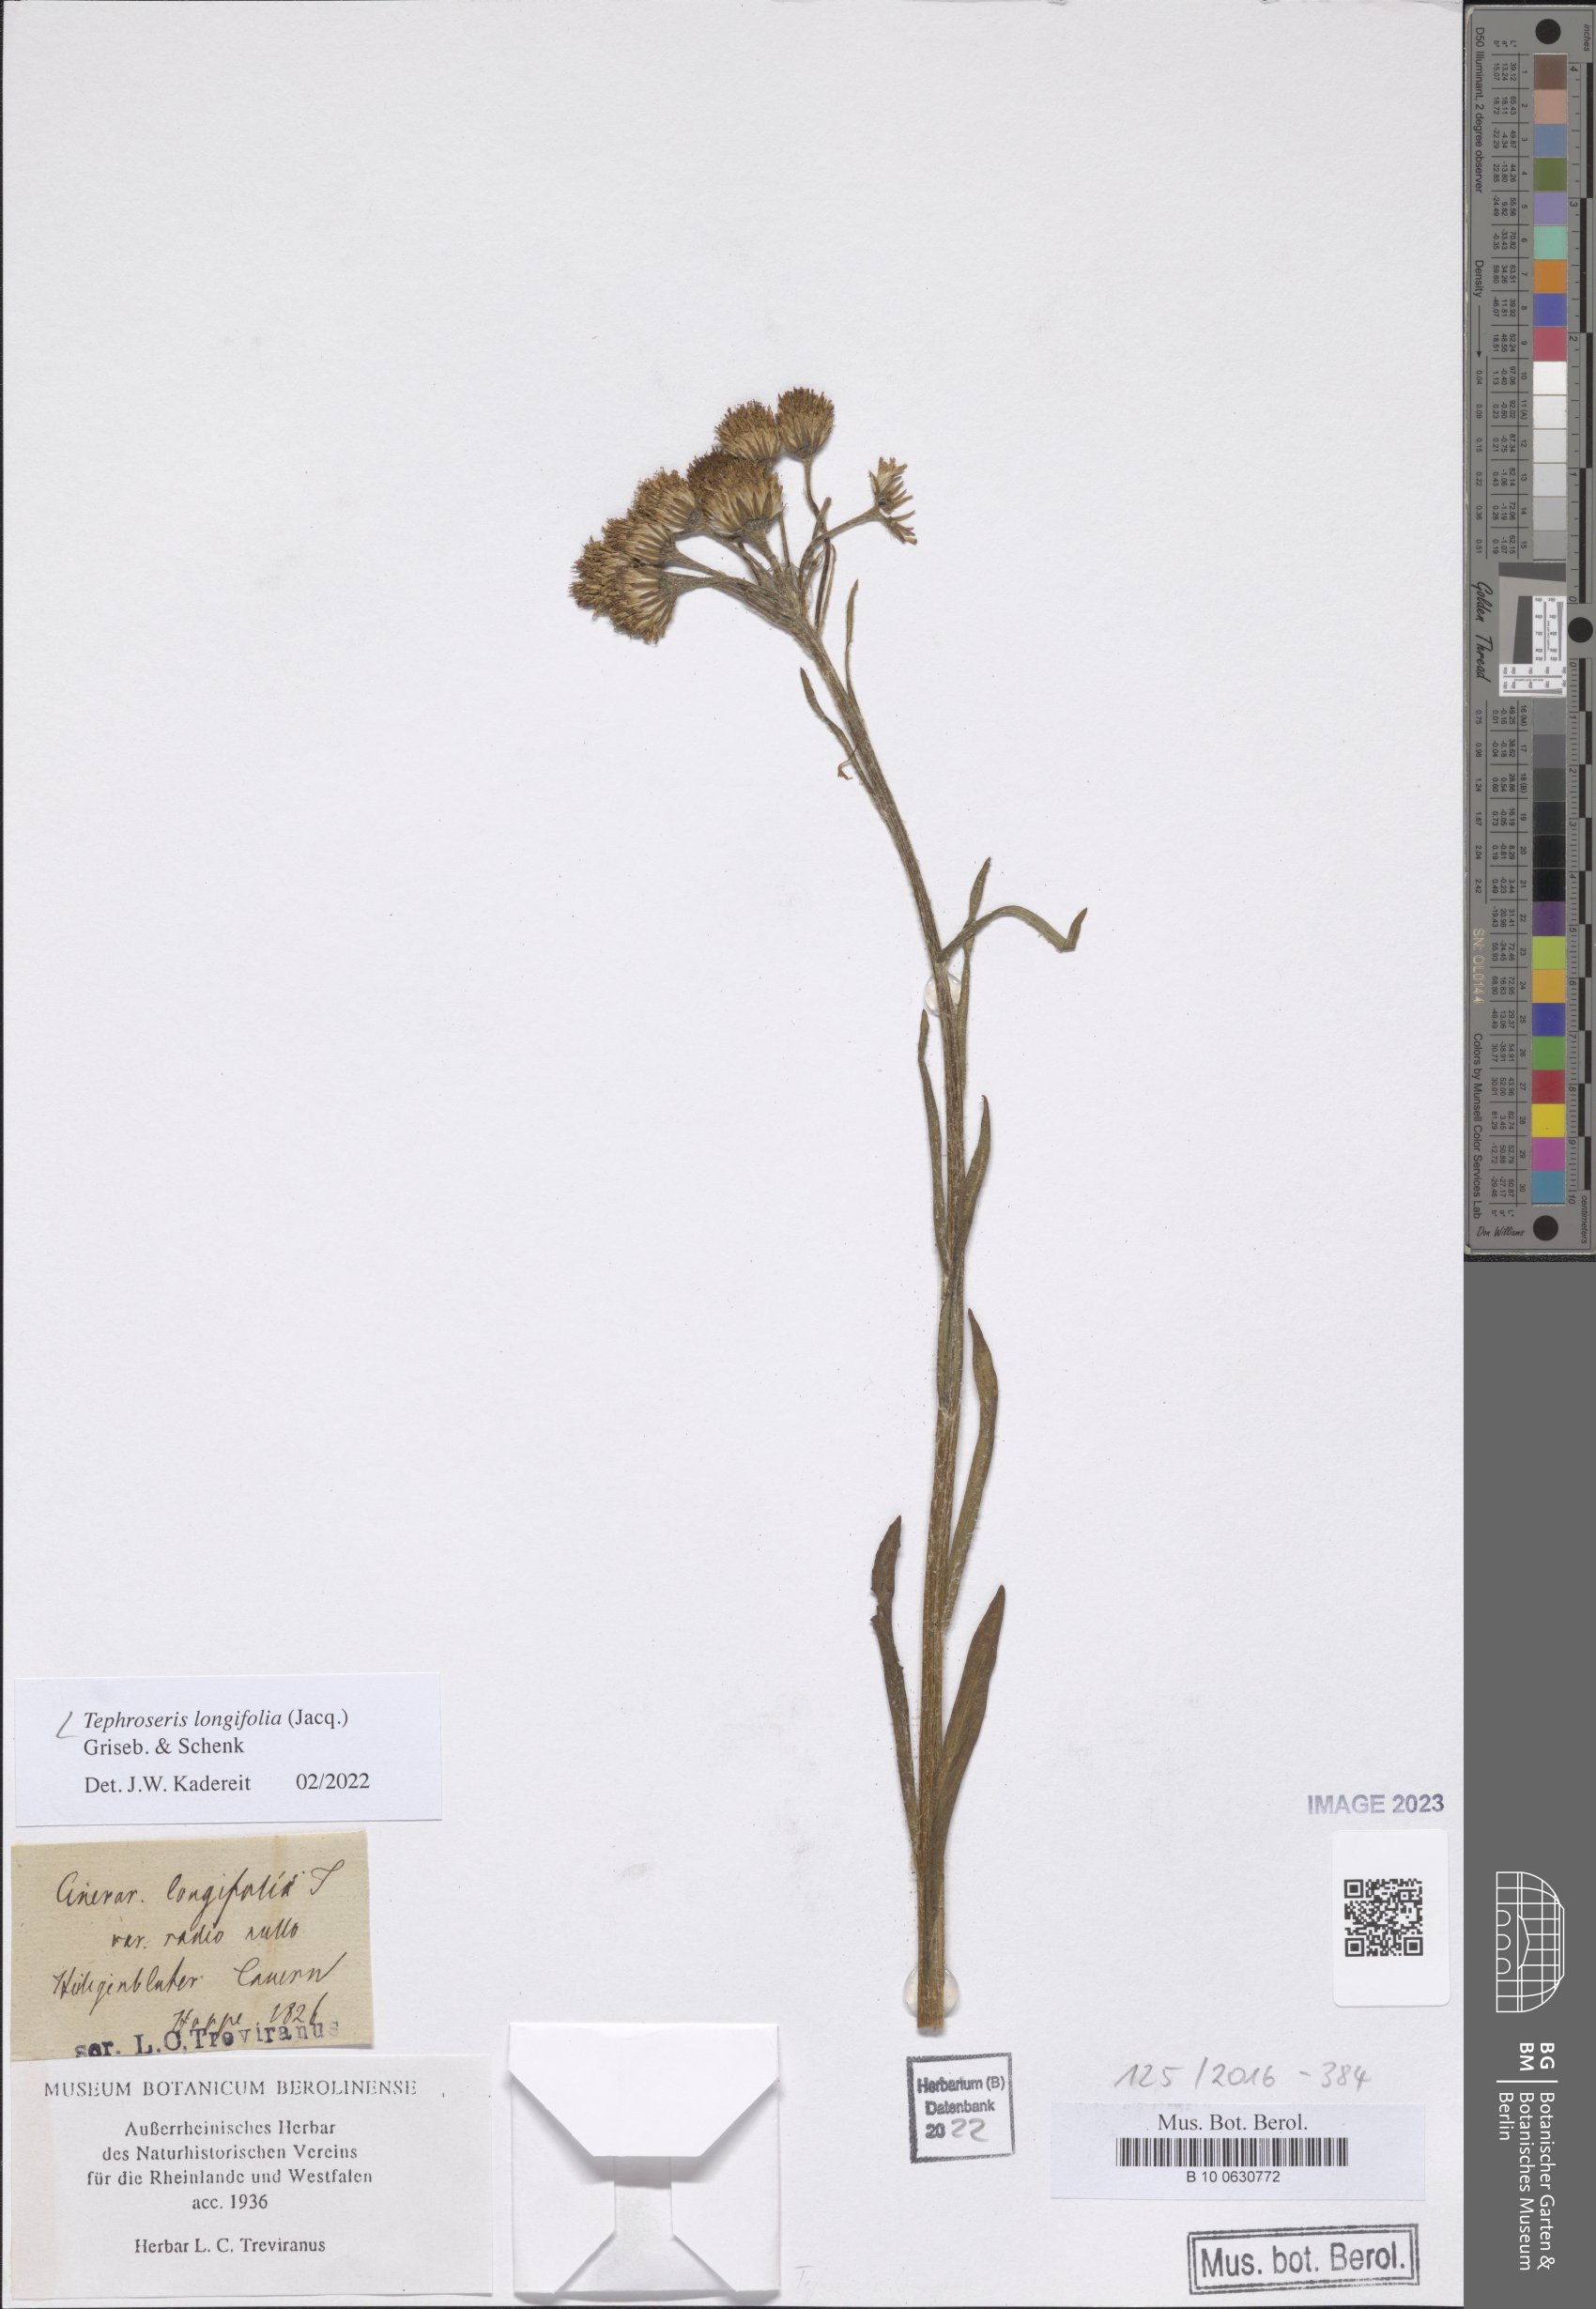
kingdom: Plantae
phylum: Tracheophyta
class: Magnoliopsida
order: Asterales
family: Asteraceae
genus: Tephroseris
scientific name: Tephroseris longifolia
